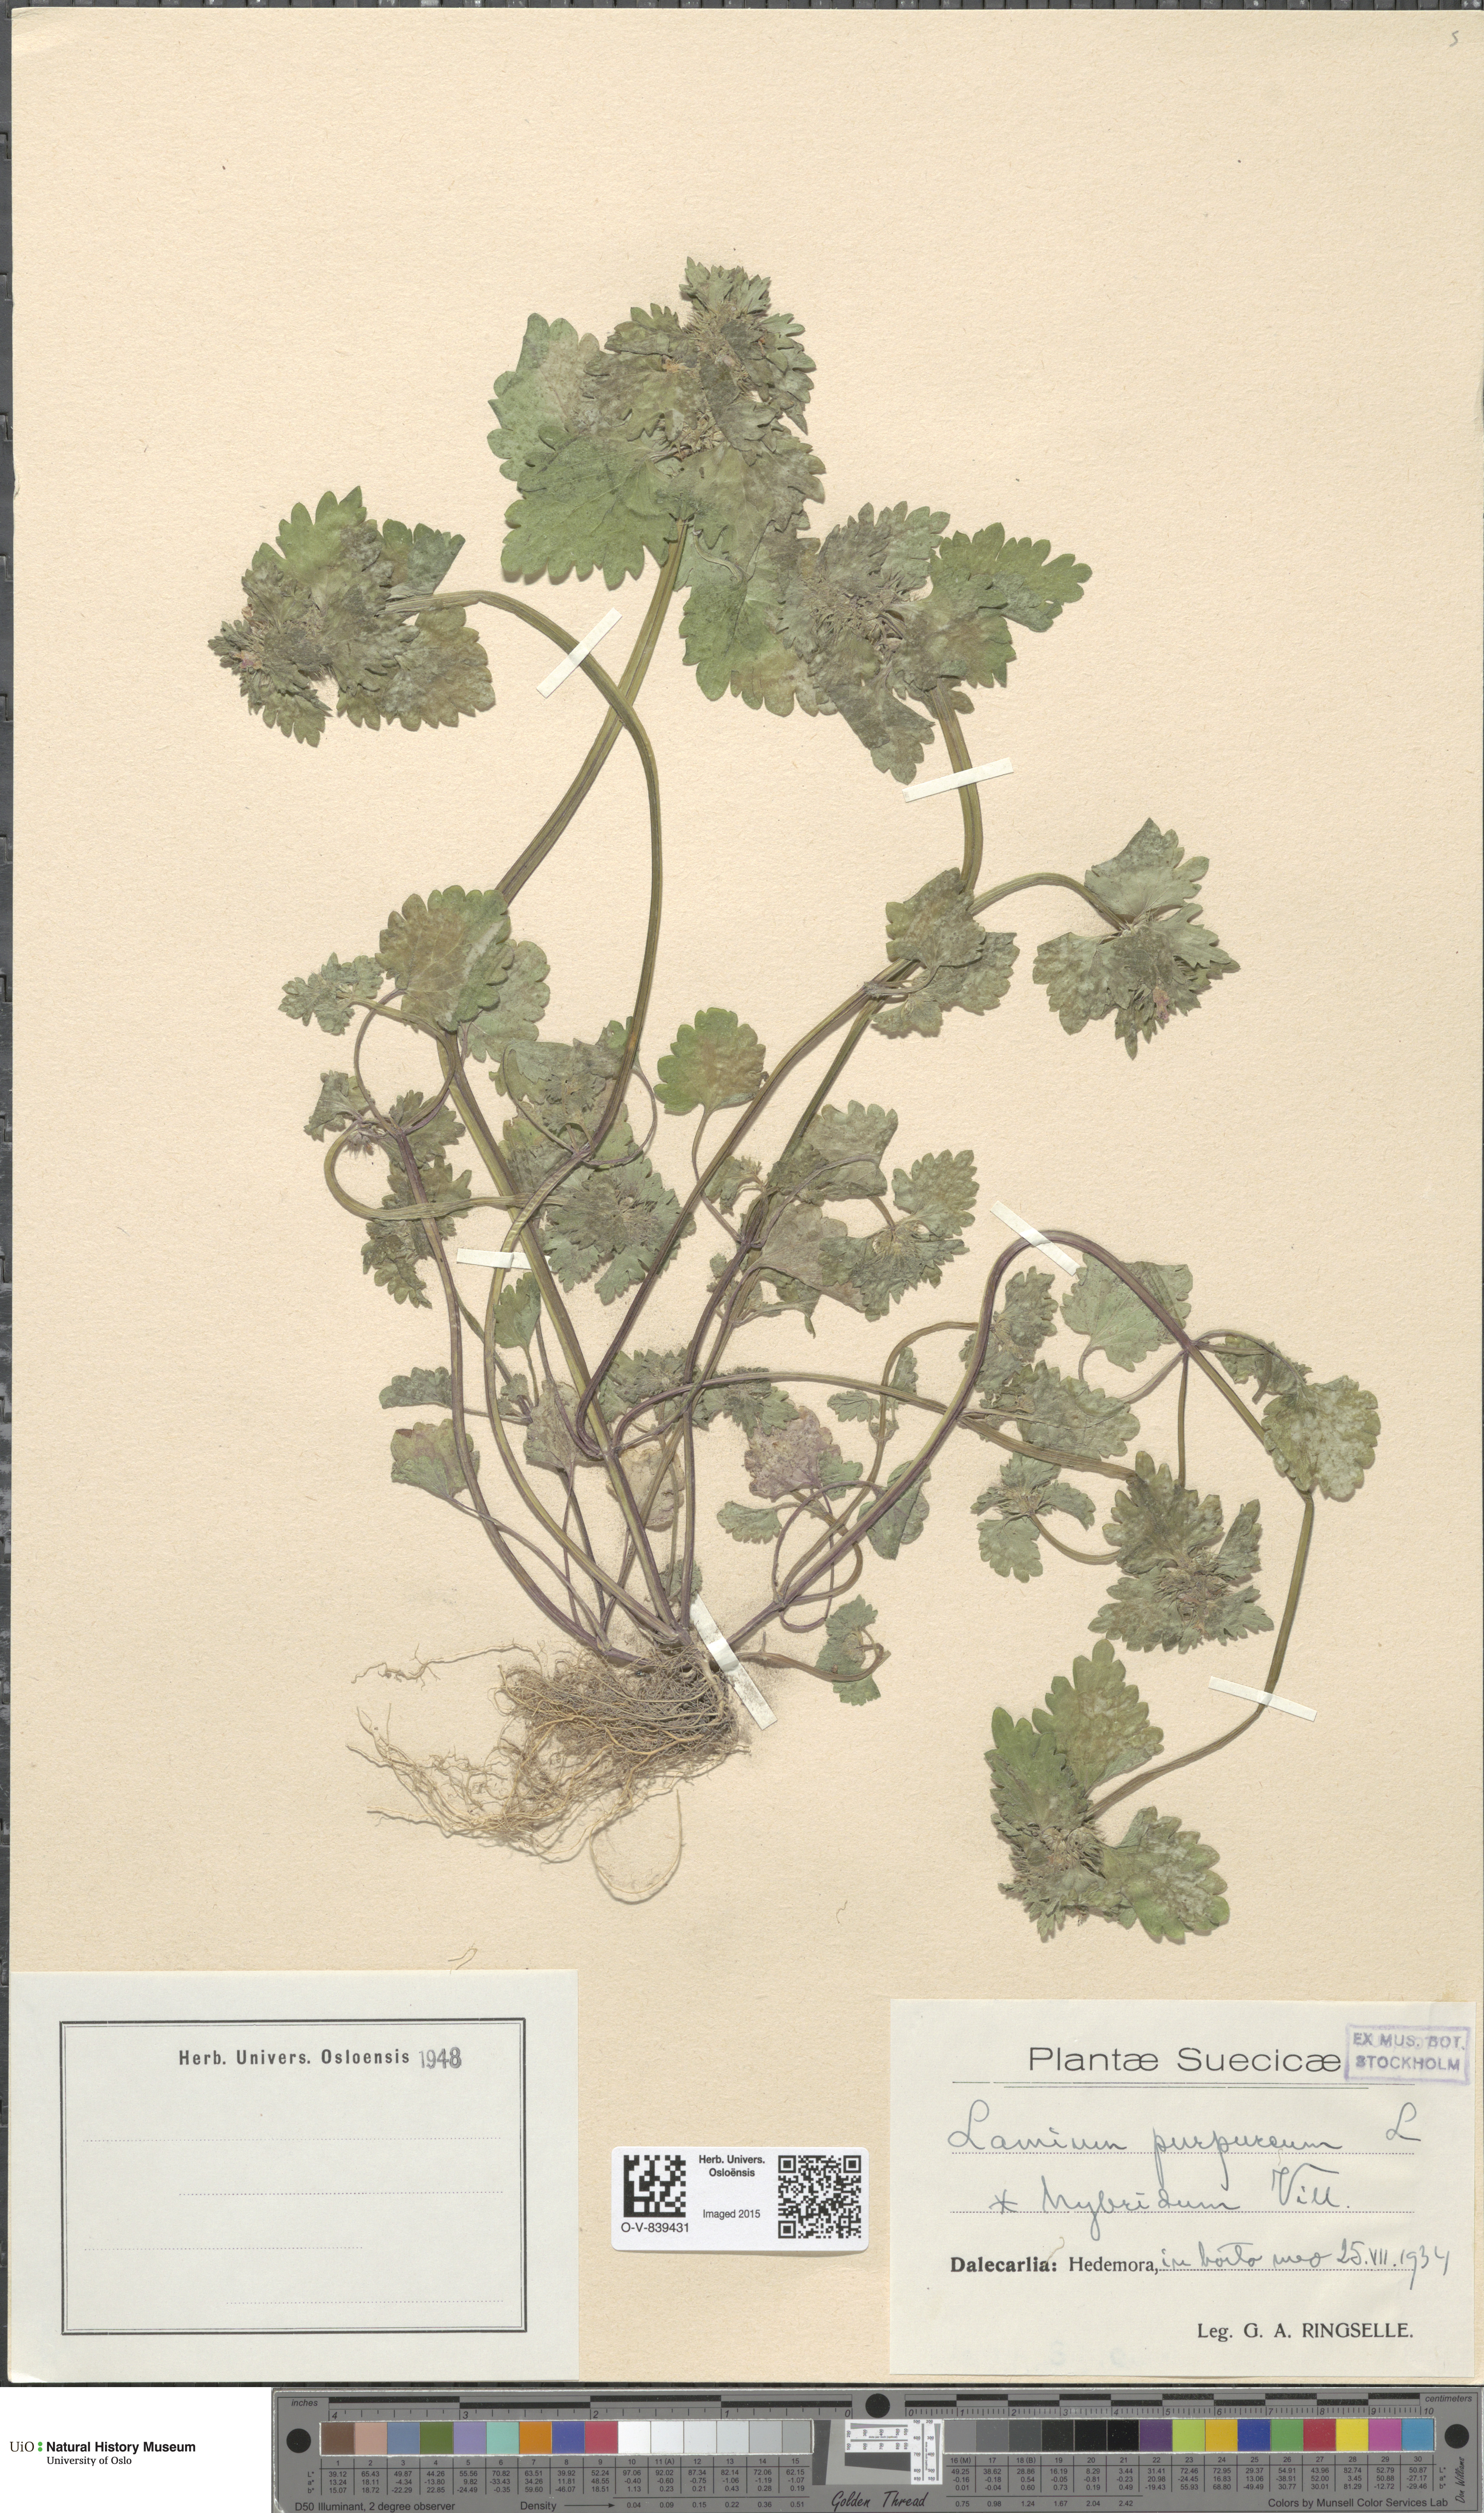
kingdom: Plantae
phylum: Tracheophyta
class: Magnoliopsida
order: Lamiales
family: Lamiaceae
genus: Lamium
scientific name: Lamium hybridum
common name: Cut-leaved dead-nettle
